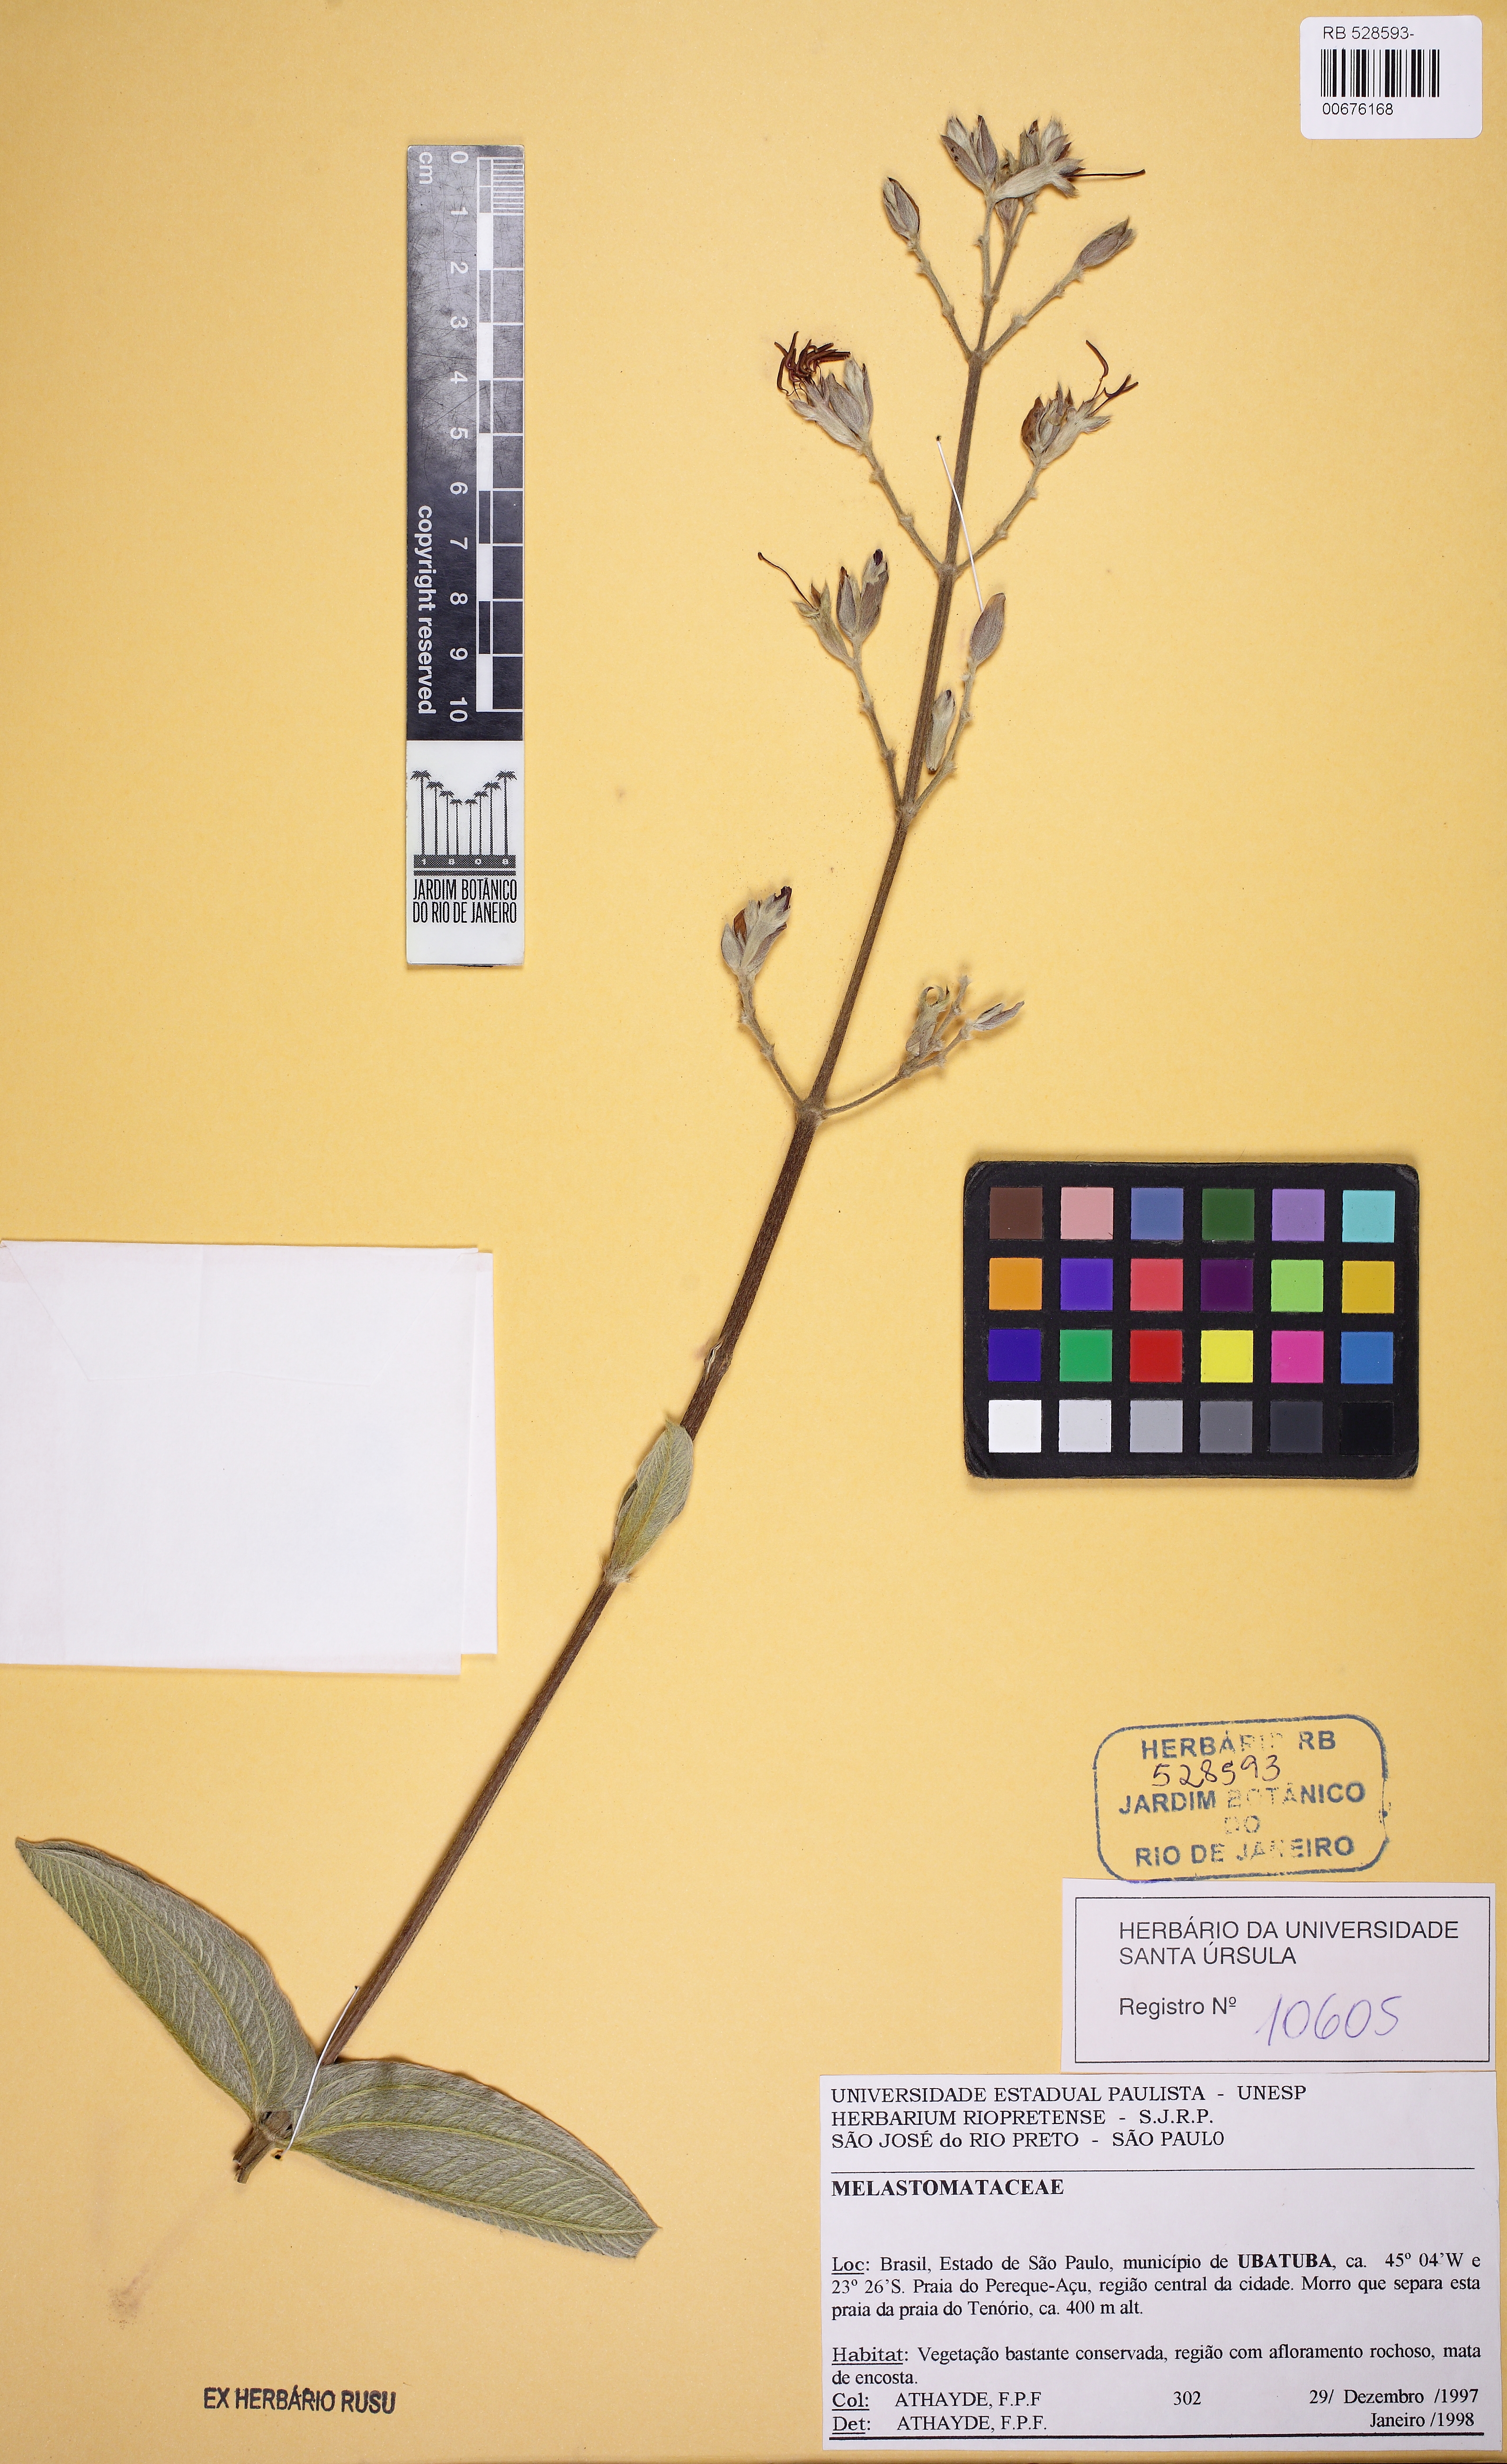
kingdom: Plantae
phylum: Tracheophyta
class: Magnoliopsida
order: Myrtales
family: Melastomataceae
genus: Tibouchina
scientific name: Tibouchina
